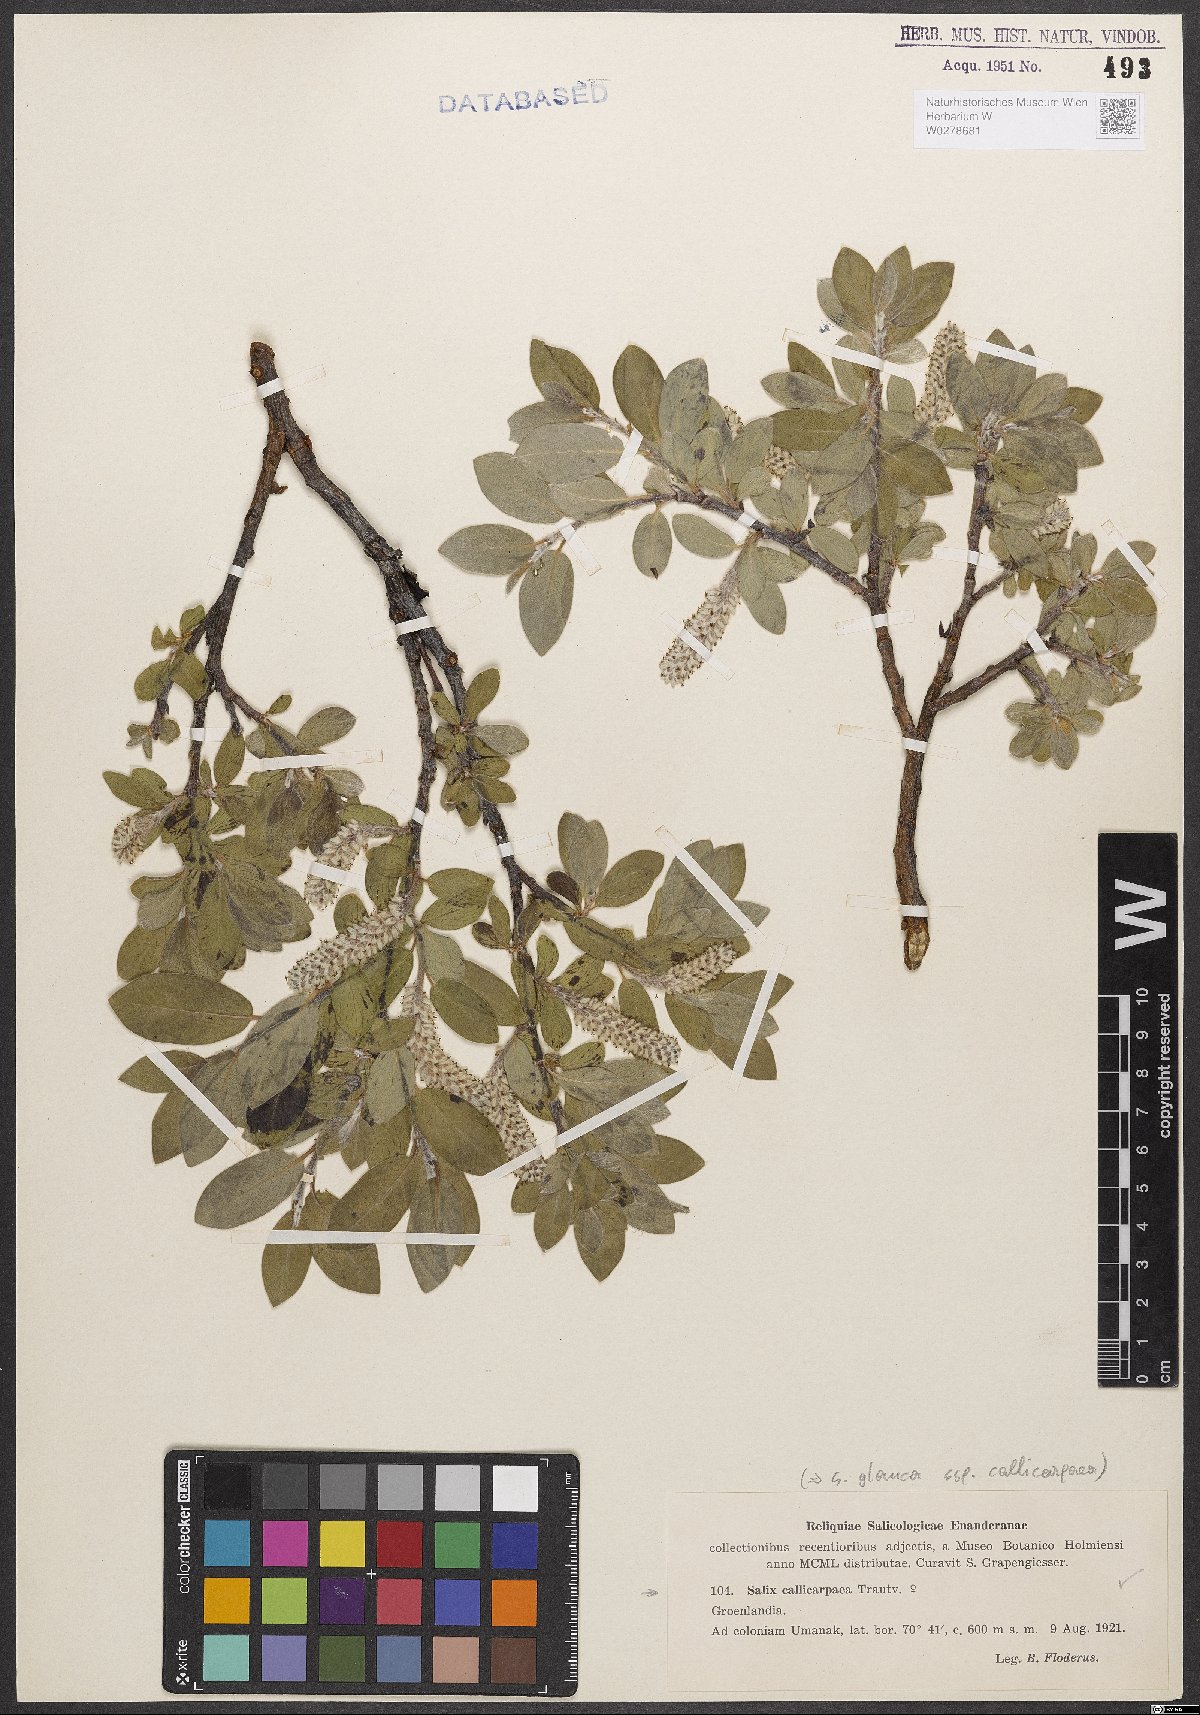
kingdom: Plantae
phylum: Tracheophyta
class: Magnoliopsida
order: Malpighiales
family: Salicaceae
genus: Salix
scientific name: Salix glauca
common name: Glaucous willow
